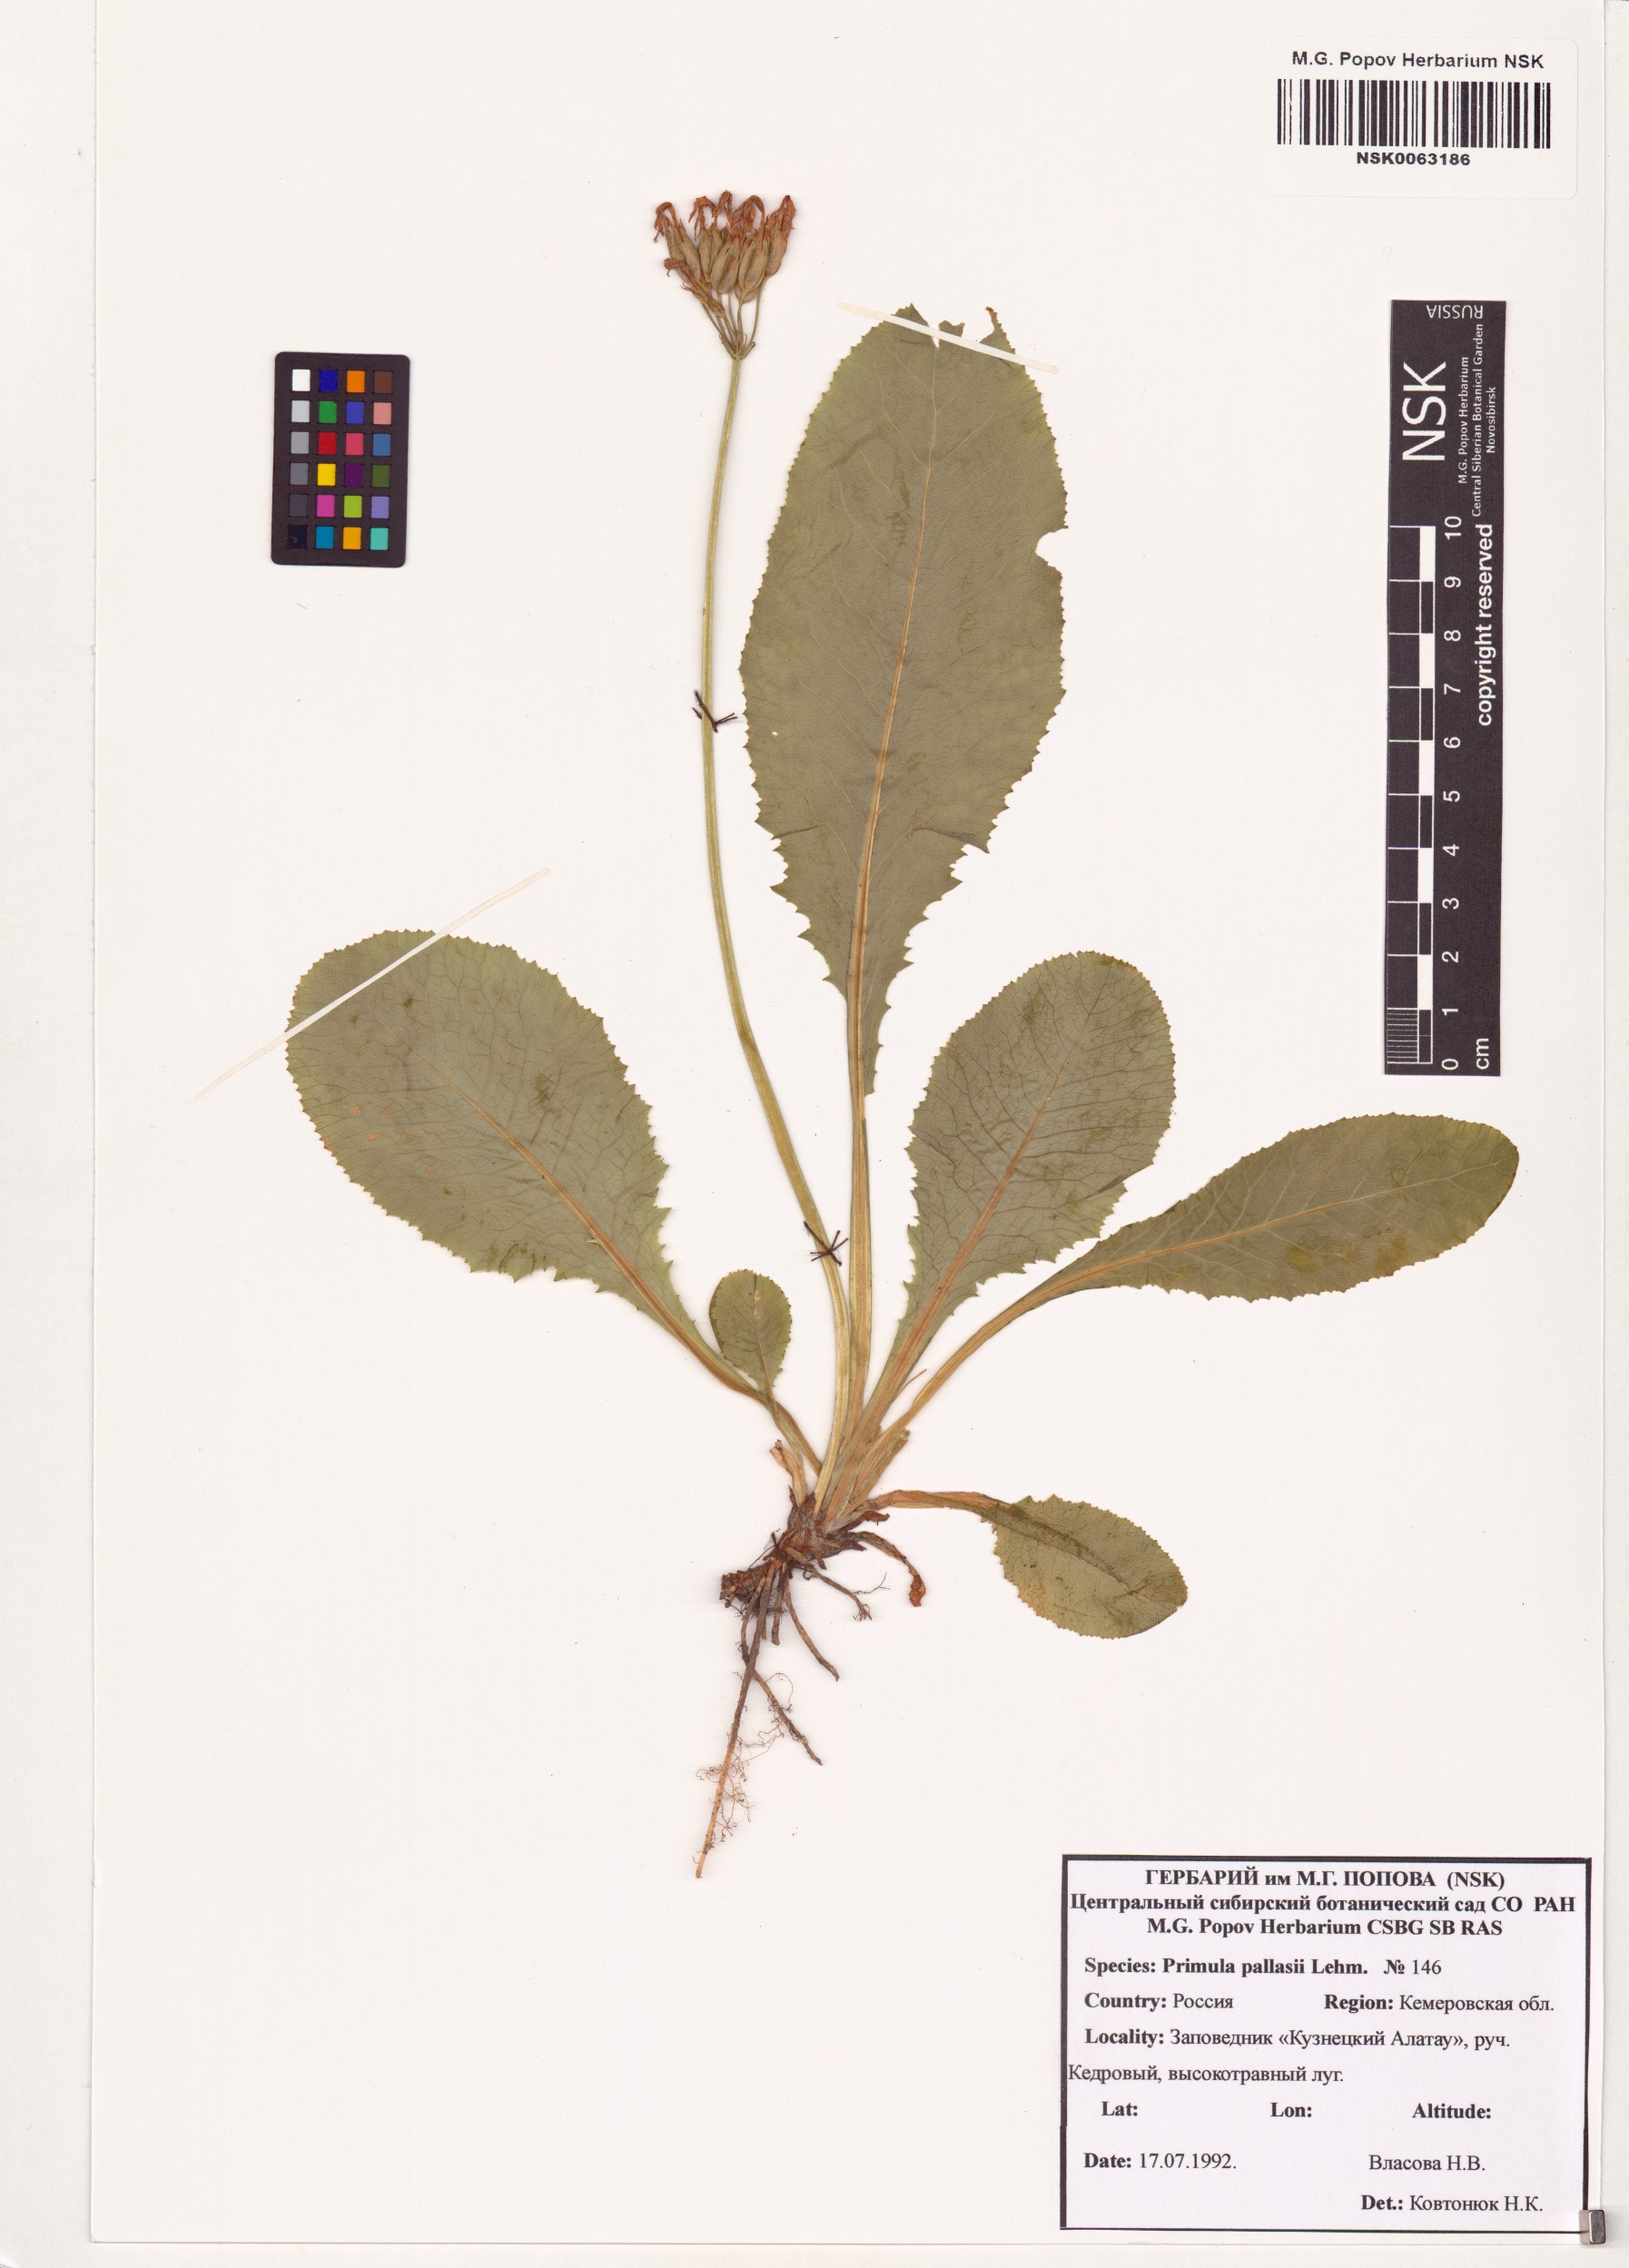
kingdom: Plantae
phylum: Tracheophyta
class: Magnoliopsida
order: Ericales
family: Primulaceae
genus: Primula
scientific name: Primula elatior
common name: Oxlip
